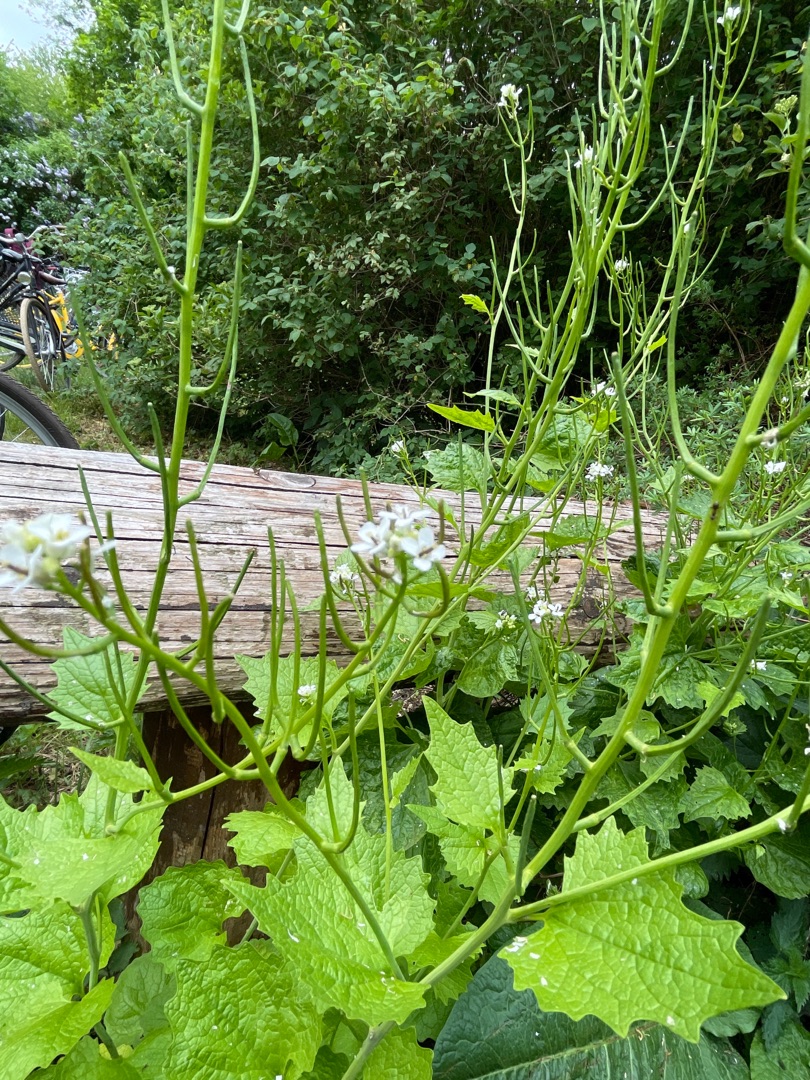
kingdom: Plantae
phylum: Tracheophyta
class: Magnoliopsida
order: Brassicales
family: Brassicaceae
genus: Alliaria
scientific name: Alliaria petiolata
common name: Løgkarse
